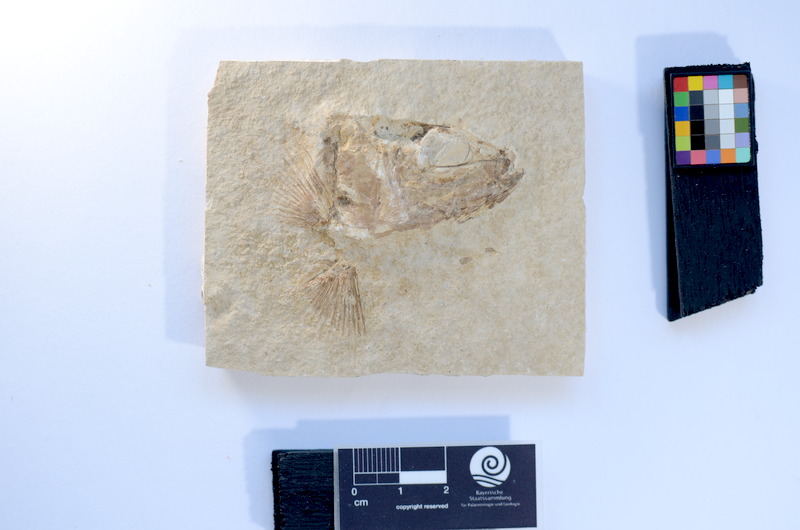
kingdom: Animalia
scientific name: Animalia
